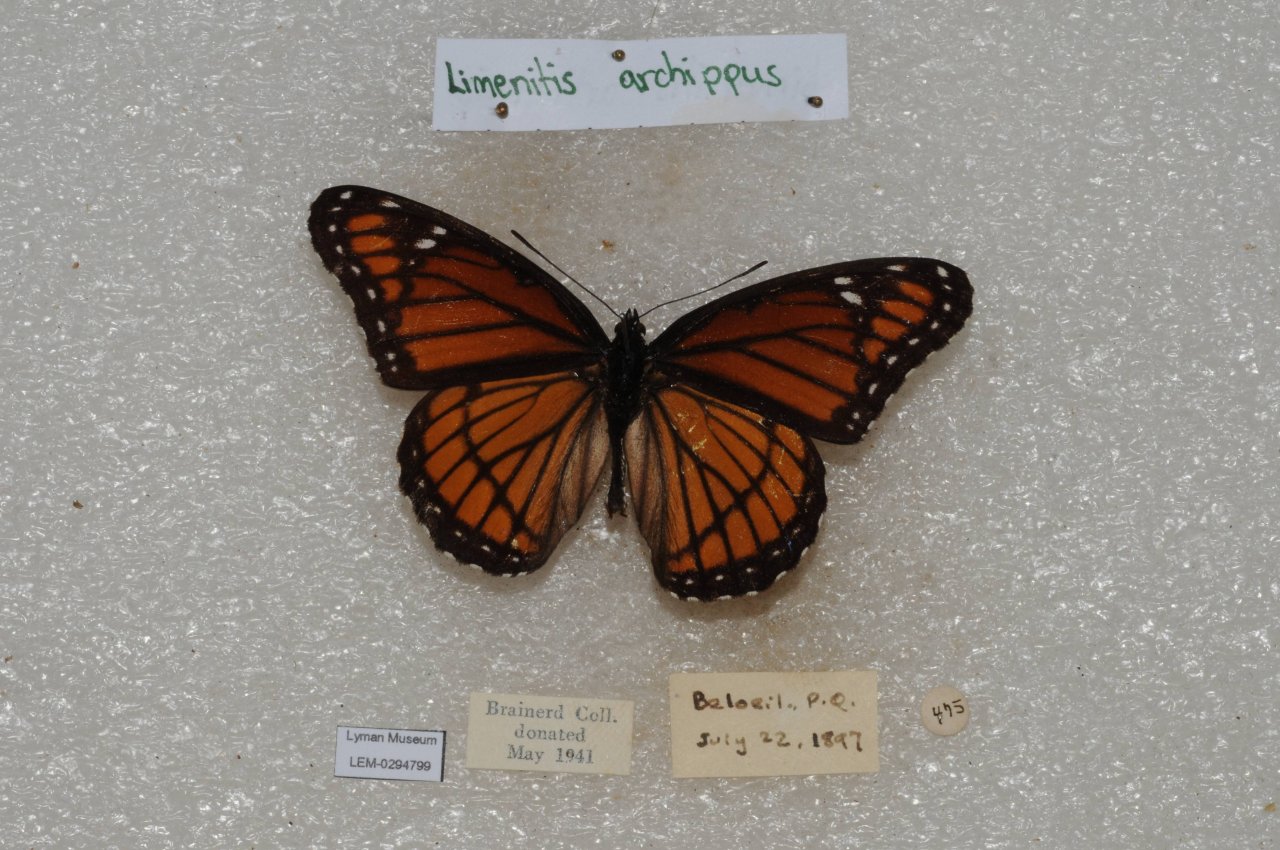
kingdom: Animalia
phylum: Arthropoda
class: Insecta
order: Lepidoptera
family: Nymphalidae
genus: Limenitis
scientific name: Limenitis archippus
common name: Viceroy
